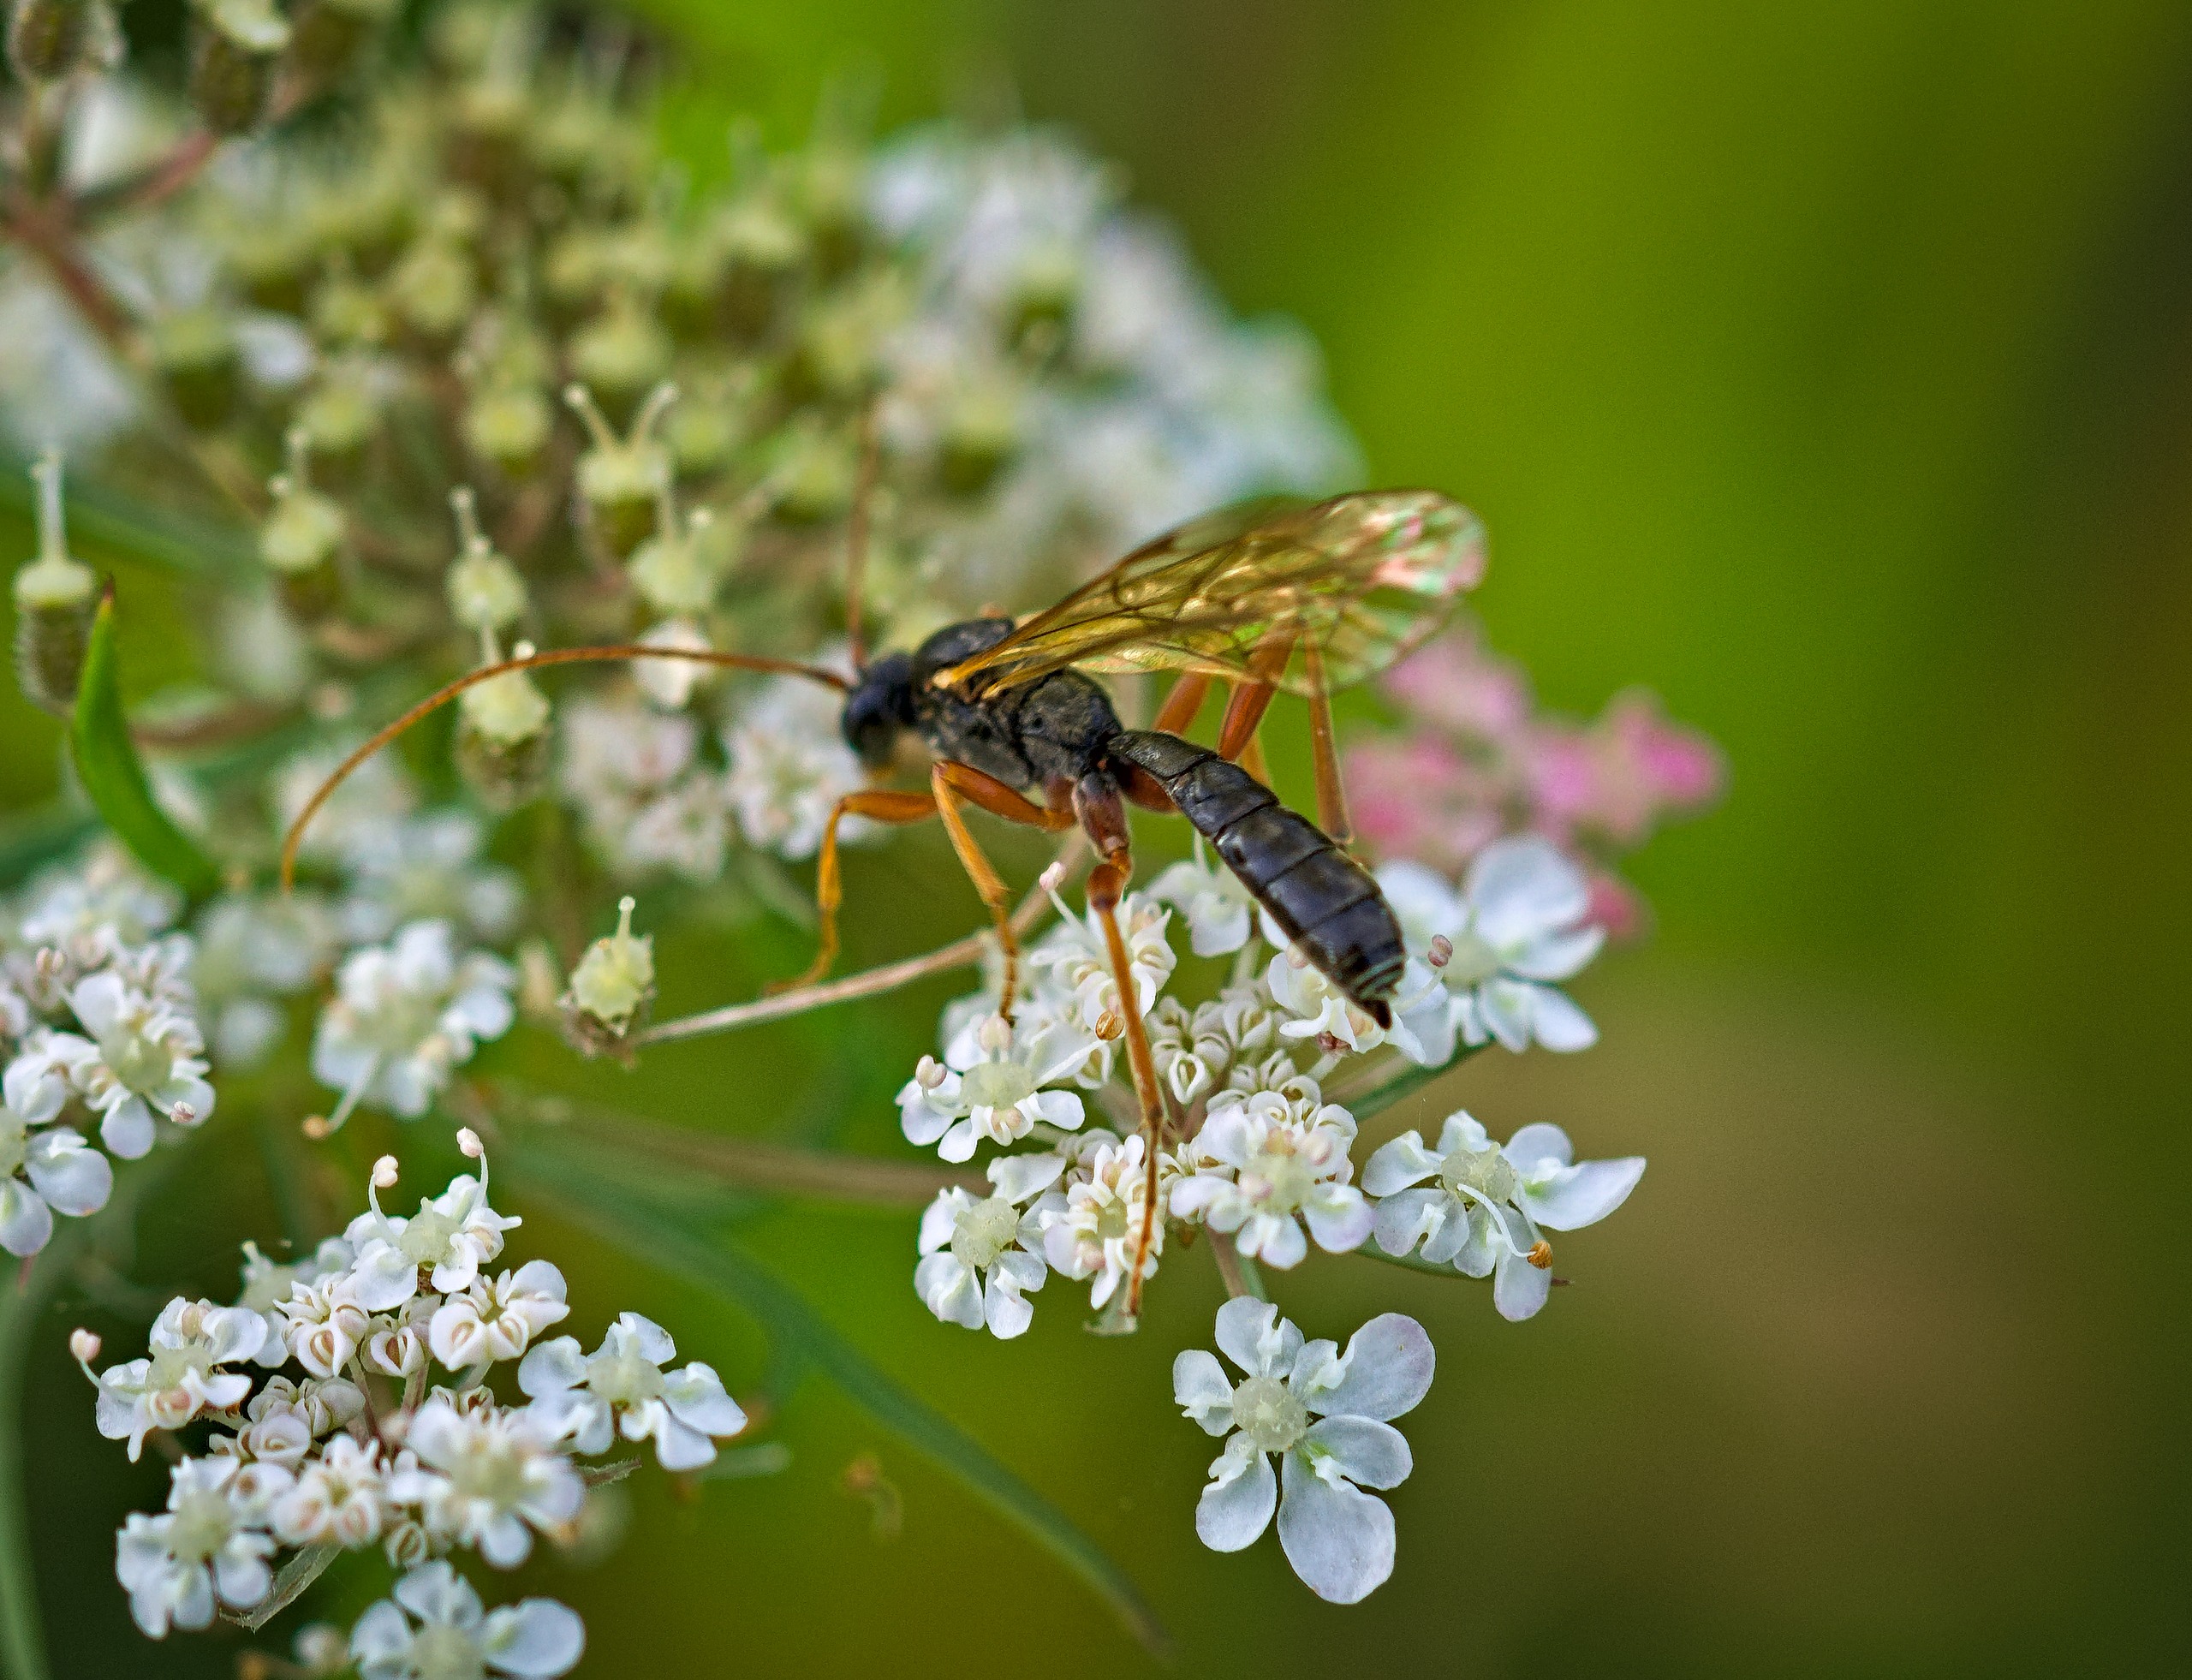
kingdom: Animalia
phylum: Arthropoda
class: Insecta
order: Hymenoptera
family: Ichneumonidae
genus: Dyspetes
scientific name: Dyspetes luteomarginatus
